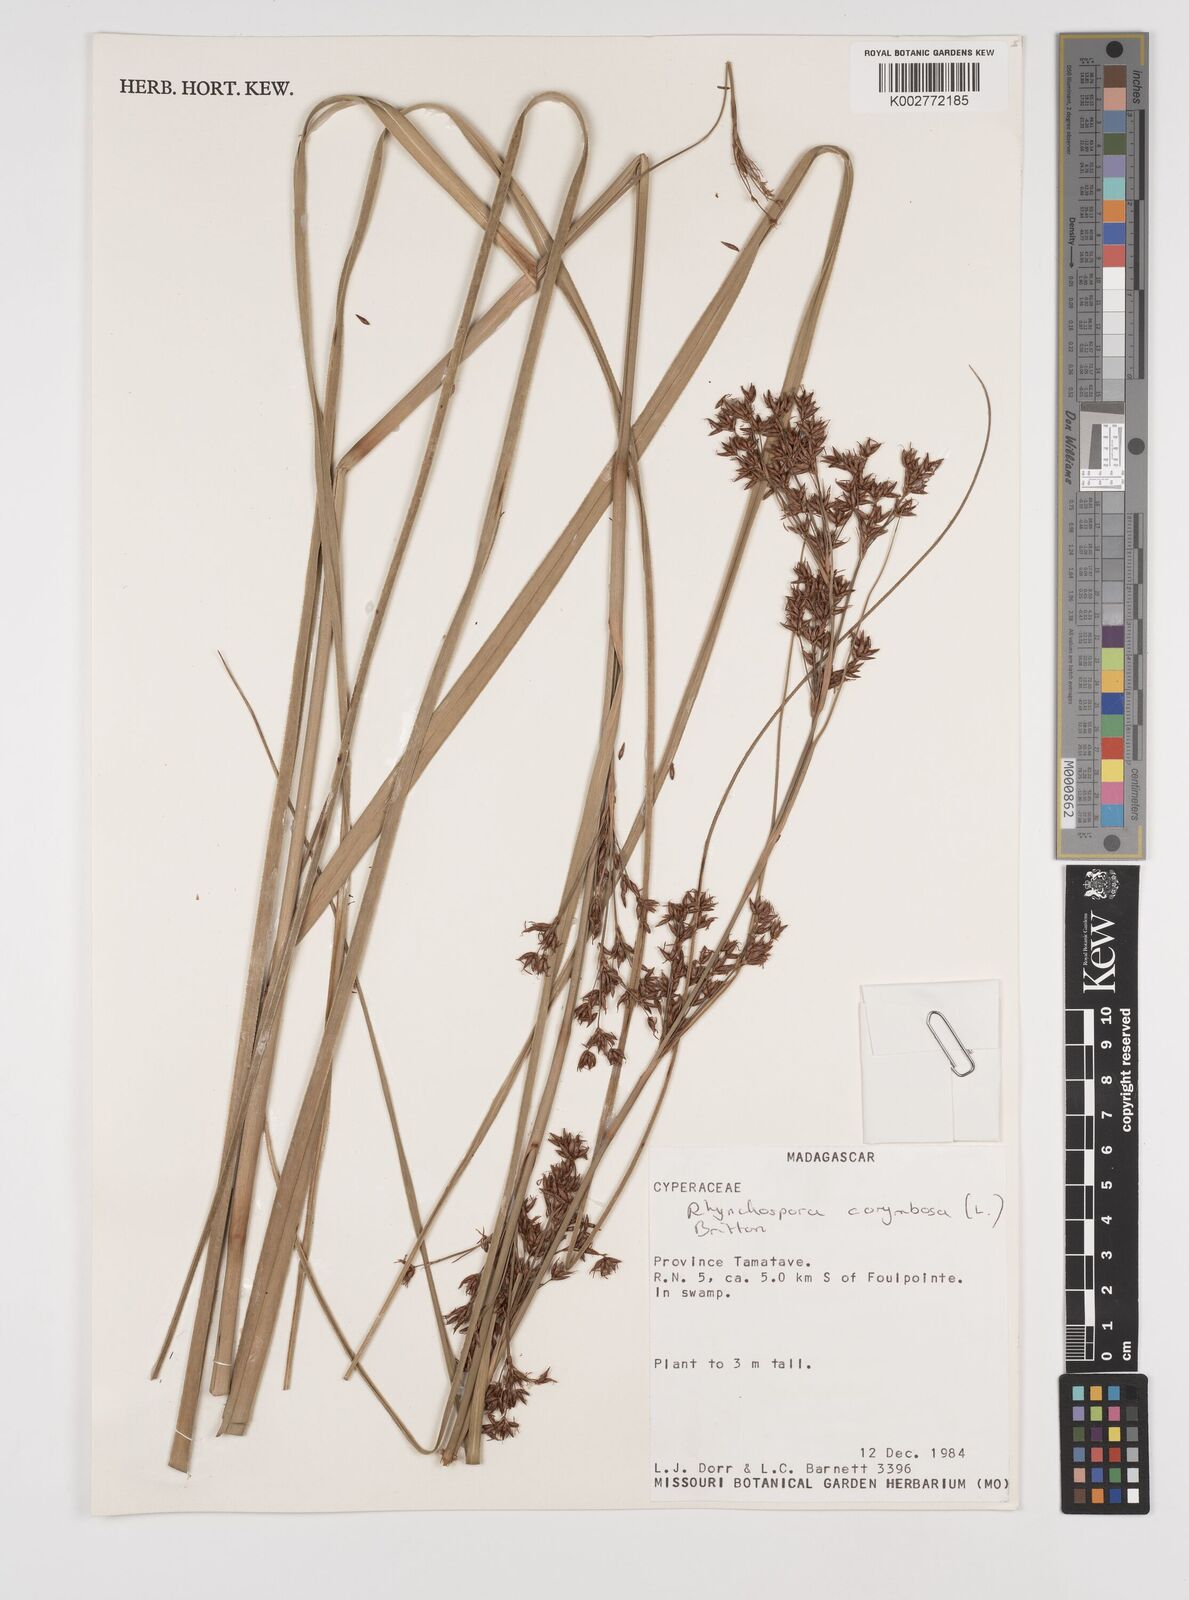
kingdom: Plantae
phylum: Tracheophyta
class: Liliopsida
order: Poales
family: Cyperaceae
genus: Rhynchospora
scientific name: Rhynchospora corymbosa
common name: Golden beak sedge
